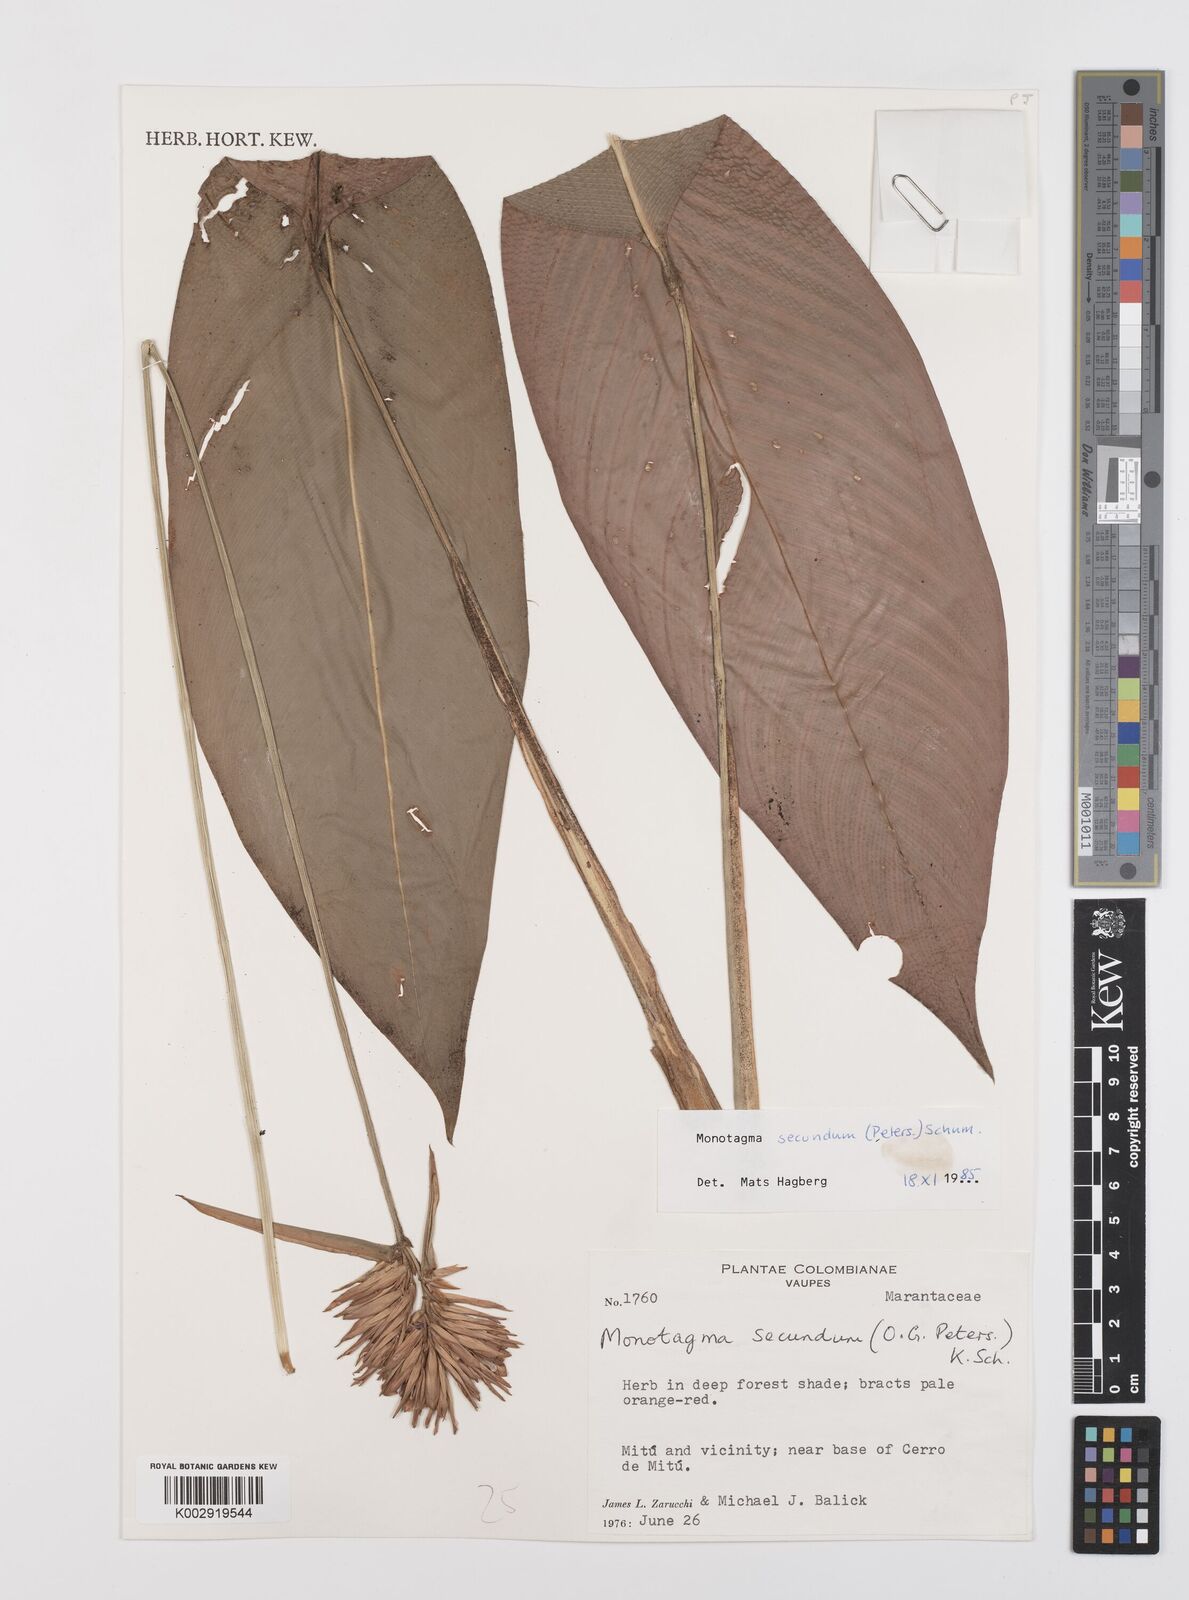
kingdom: Plantae
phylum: Tracheophyta
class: Liliopsida
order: Zingiberales
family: Marantaceae
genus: Monotagma
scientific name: Monotagma secundum
